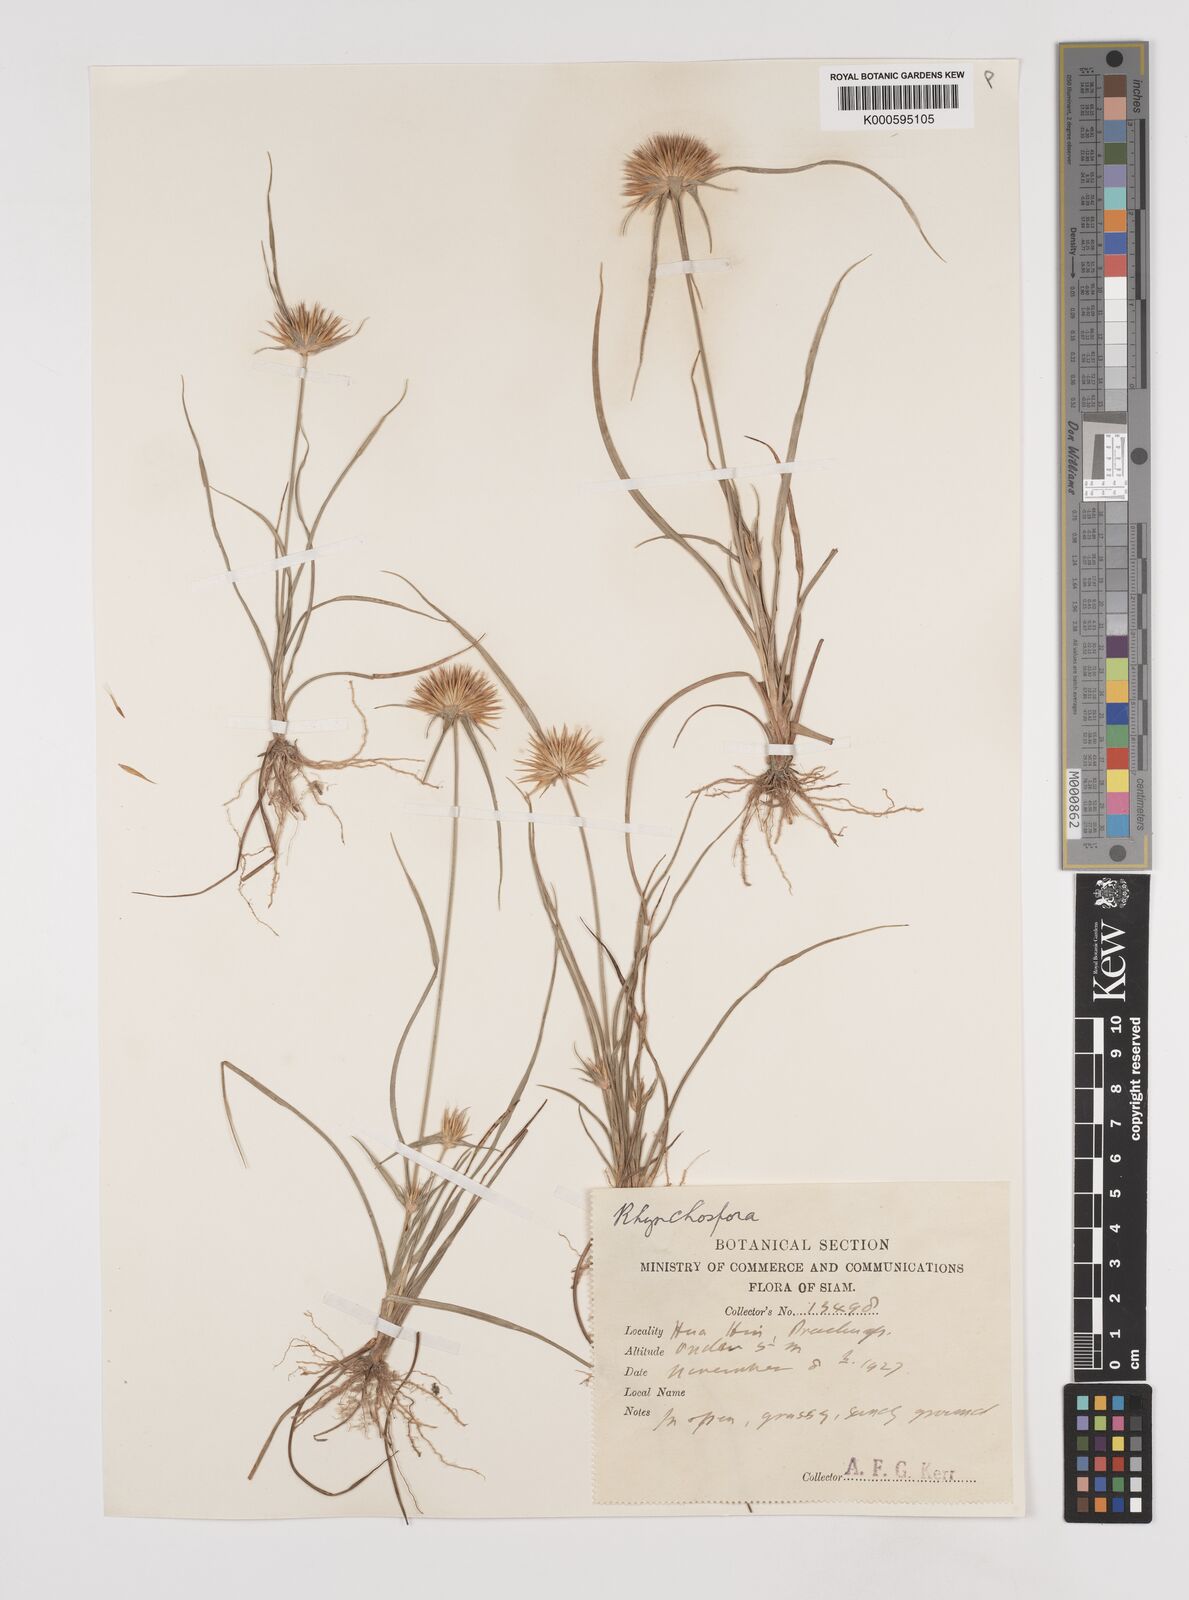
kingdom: Plantae
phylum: Tracheophyta
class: Liliopsida
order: Poales
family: Cyperaceae
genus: Rhynchospora
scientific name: Rhynchospora longisetis
